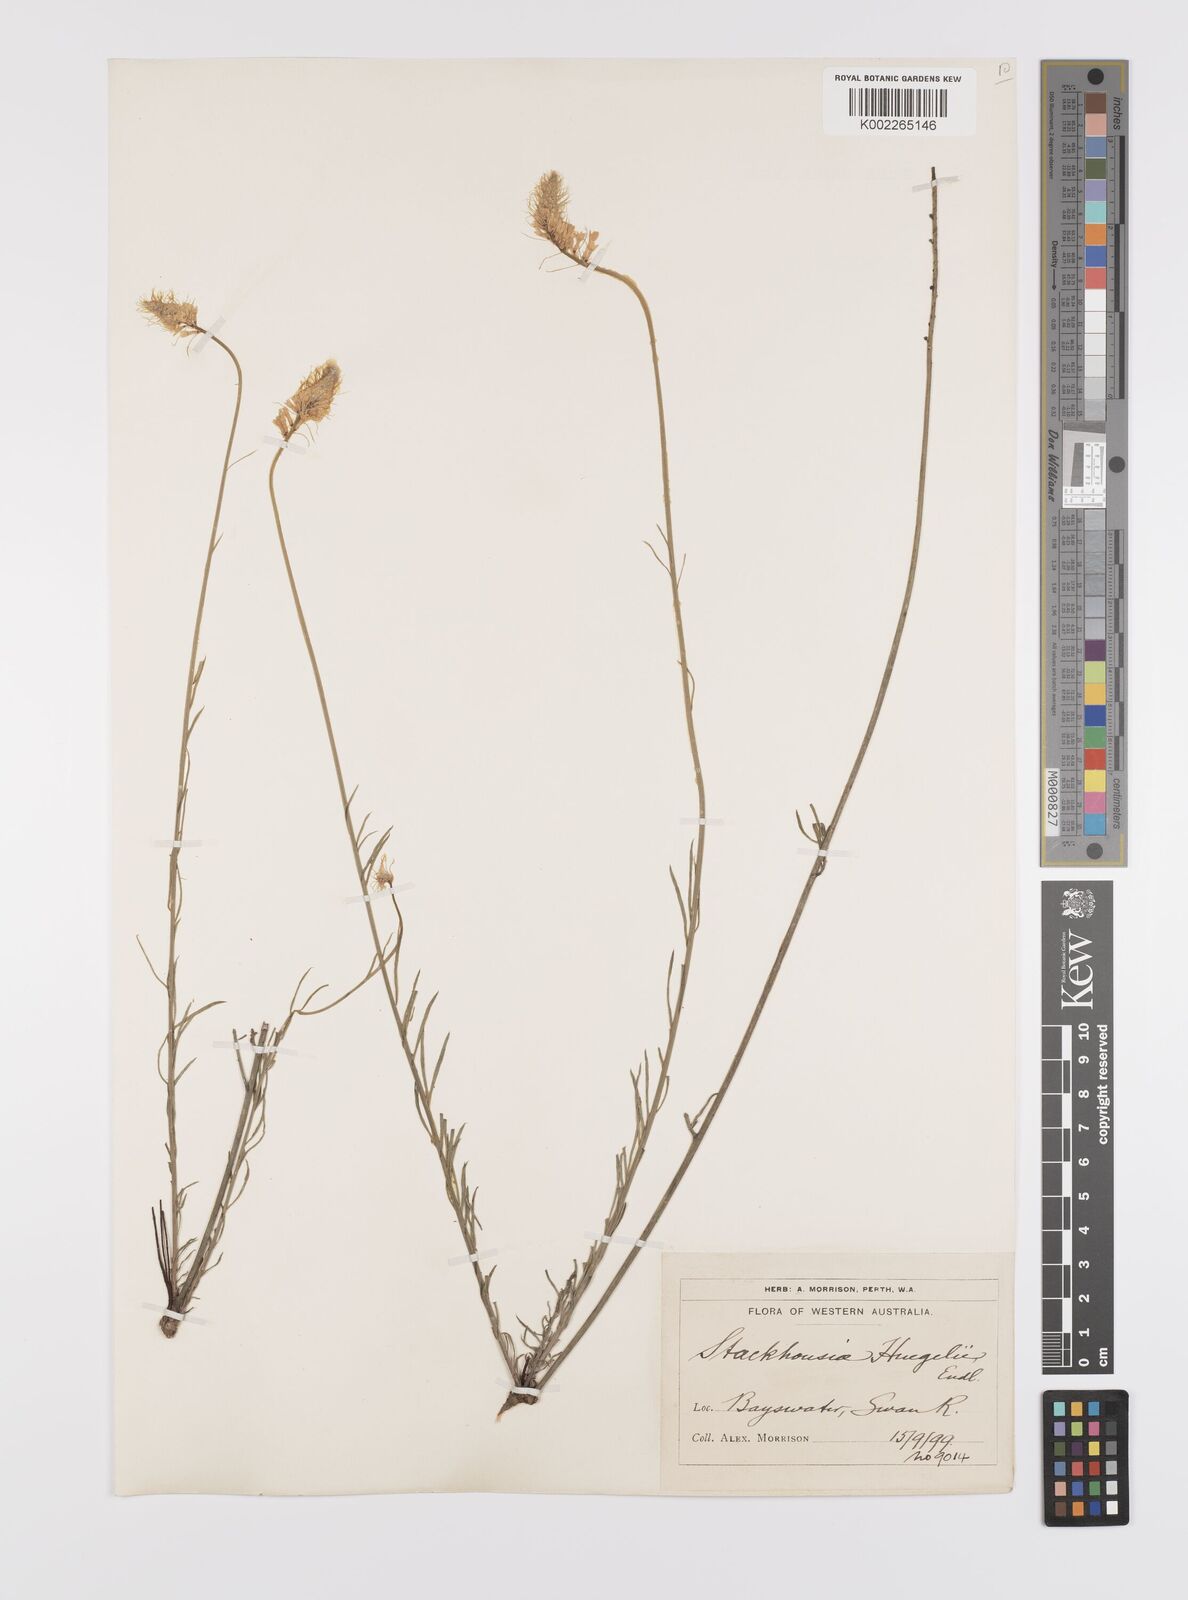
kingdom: Plantae
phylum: Tracheophyta
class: Magnoliopsida
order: Celastrales
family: Celastraceae
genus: Stackhousia
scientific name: Stackhousia monogyna
